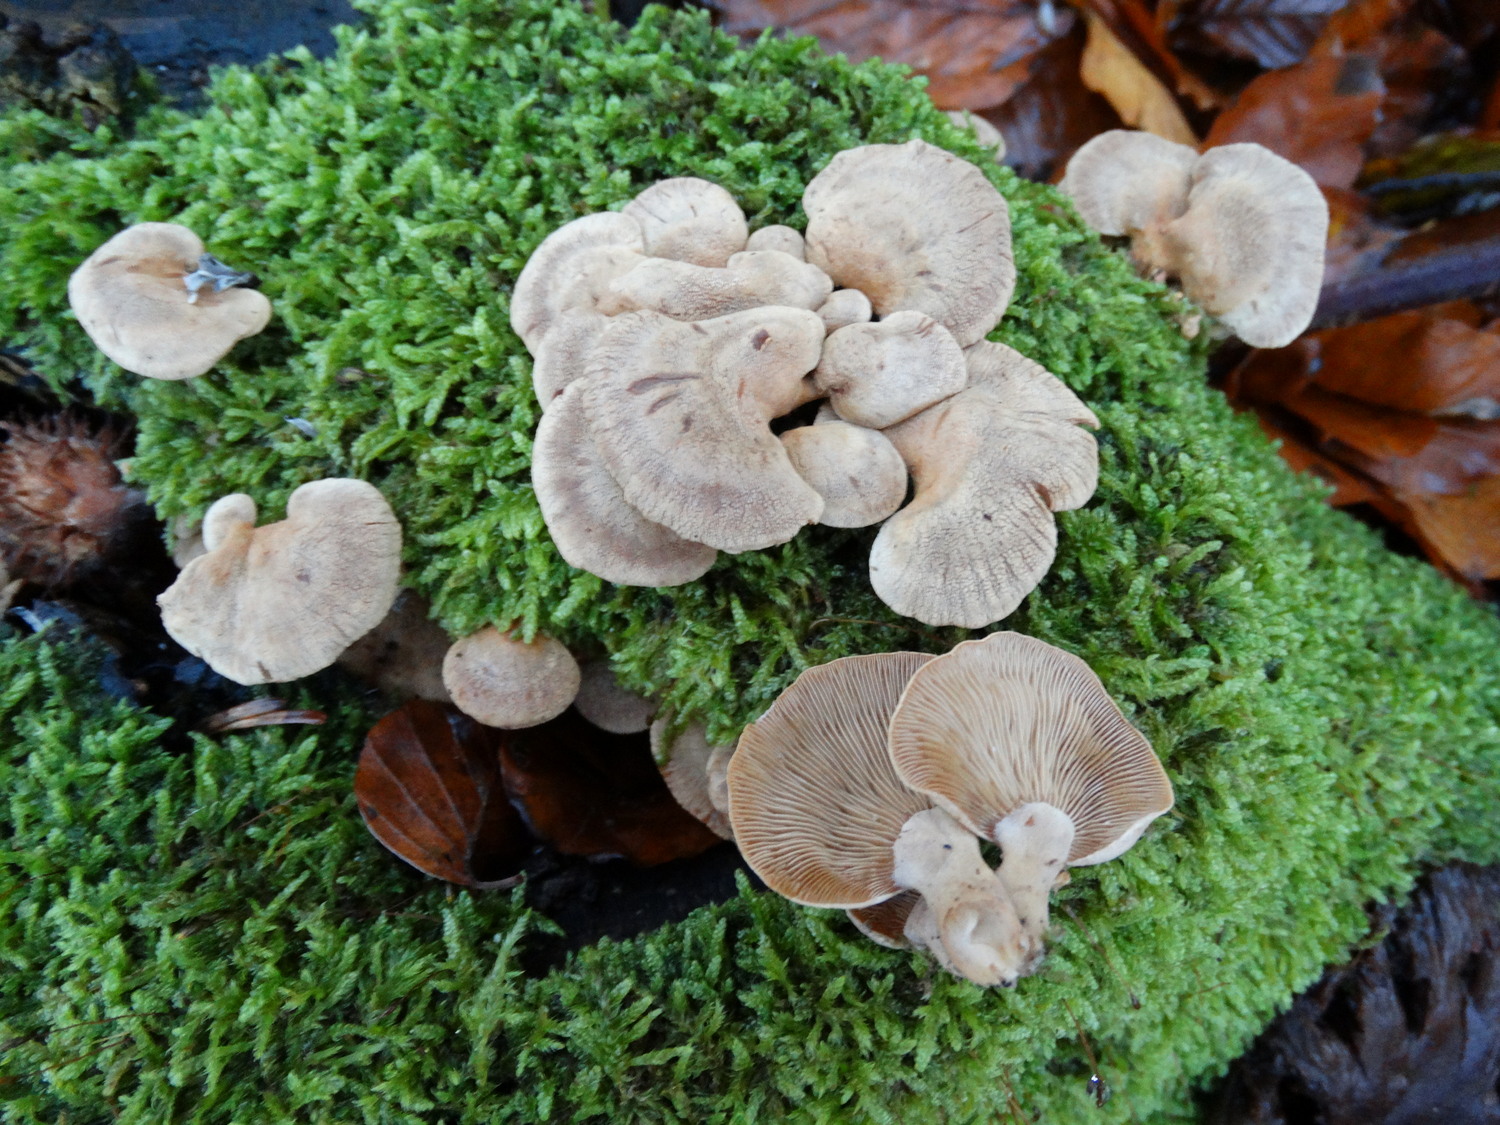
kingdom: Fungi
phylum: Basidiomycota
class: Agaricomycetes
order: Agaricales
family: Mycenaceae
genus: Panellus
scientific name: Panellus stipticus
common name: kliddet epaulethat
